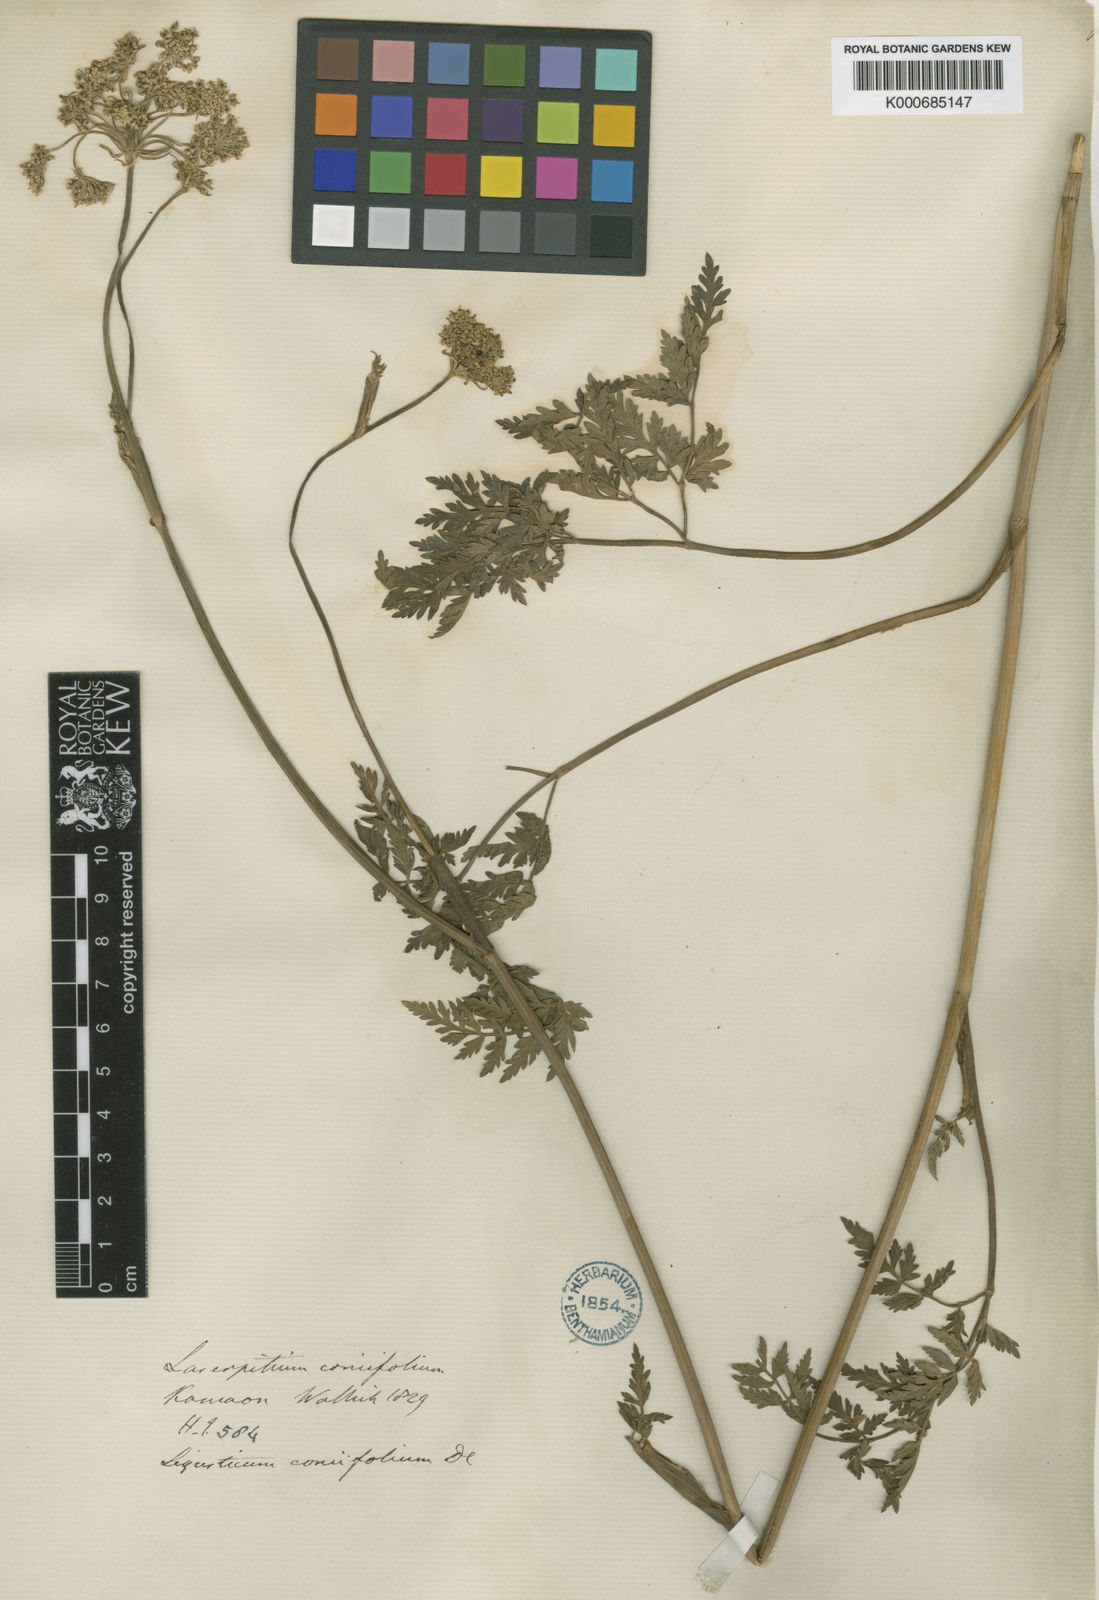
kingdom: Plantae
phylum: Tracheophyta
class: Magnoliopsida
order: Apiales
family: Apiaceae
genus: Selinum
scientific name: Selinum
